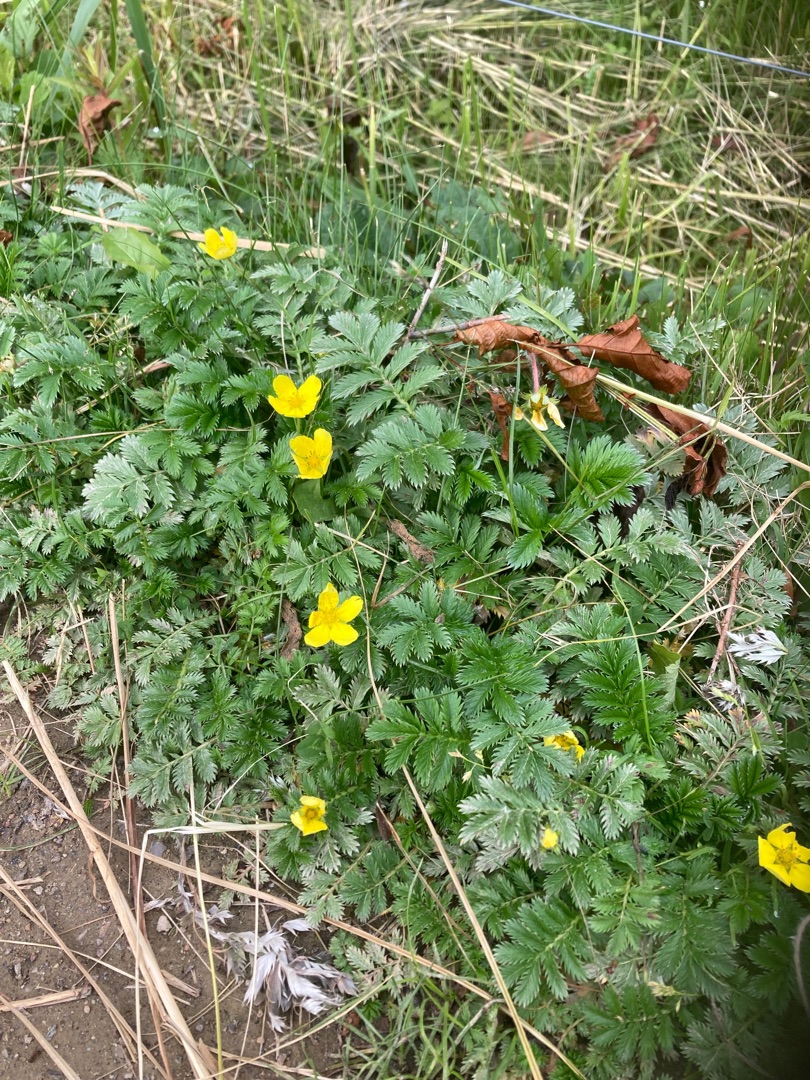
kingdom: Plantae
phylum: Tracheophyta
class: Magnoliopsida
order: Rosales
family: Rosaceae
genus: Argentina
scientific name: Argentina anserina
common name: Gåsepotentil
